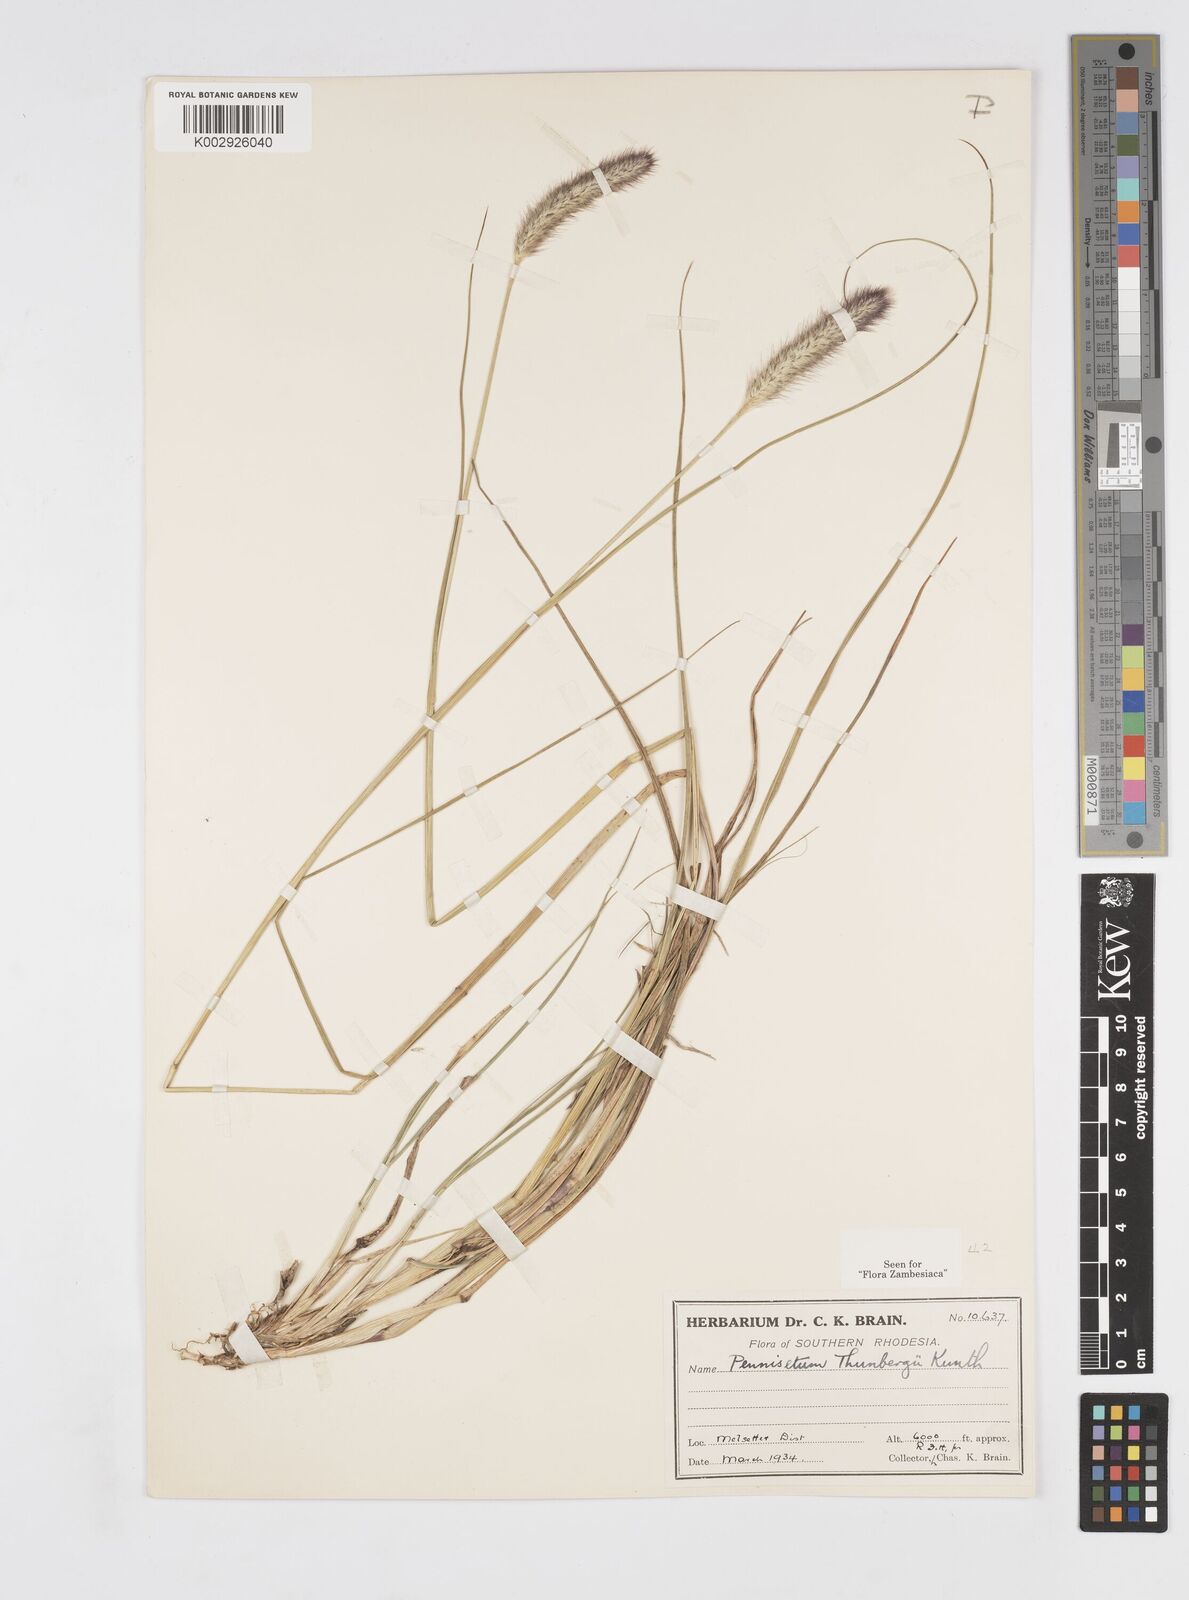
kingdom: Plantae
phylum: Tracheophyta
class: Liliopsida
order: Poales
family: Poaceae
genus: Cenchrus
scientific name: Cenchrus geniculatus
